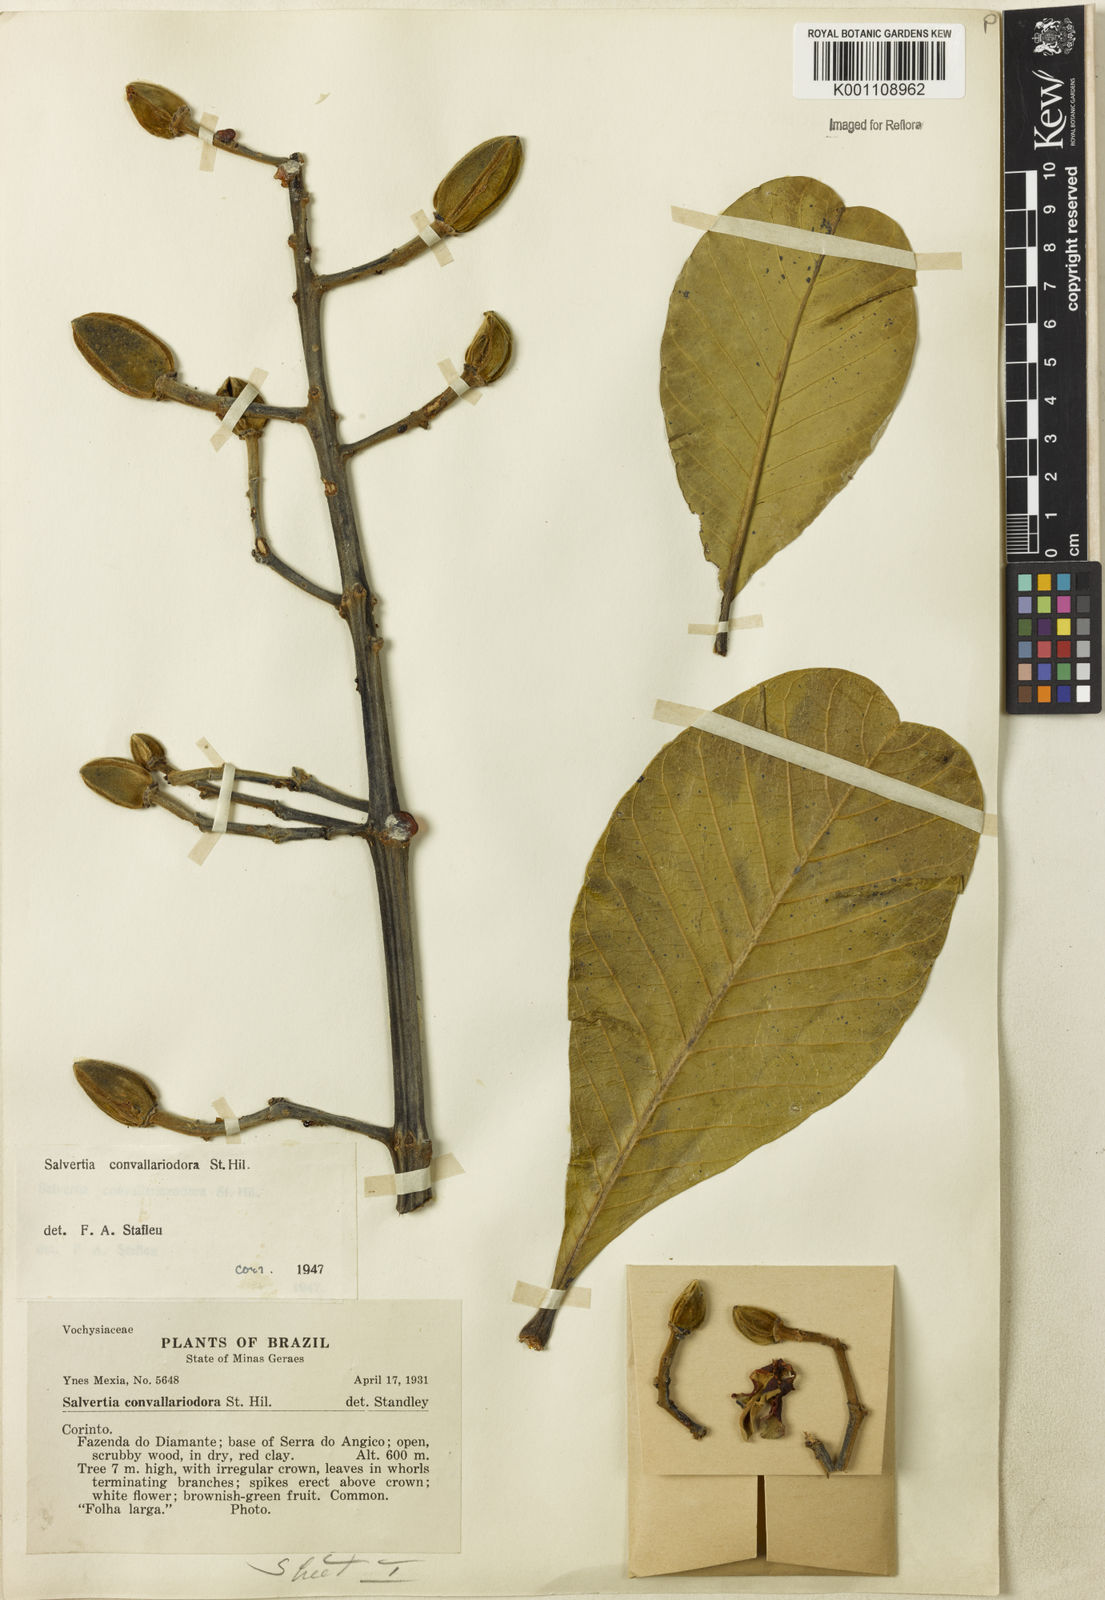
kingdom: Plantae
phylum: Tracheophyta
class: Magnoliopsida
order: Myrtales
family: Vochysiaceae
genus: Salvertia
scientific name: Salvertia convallariodora
